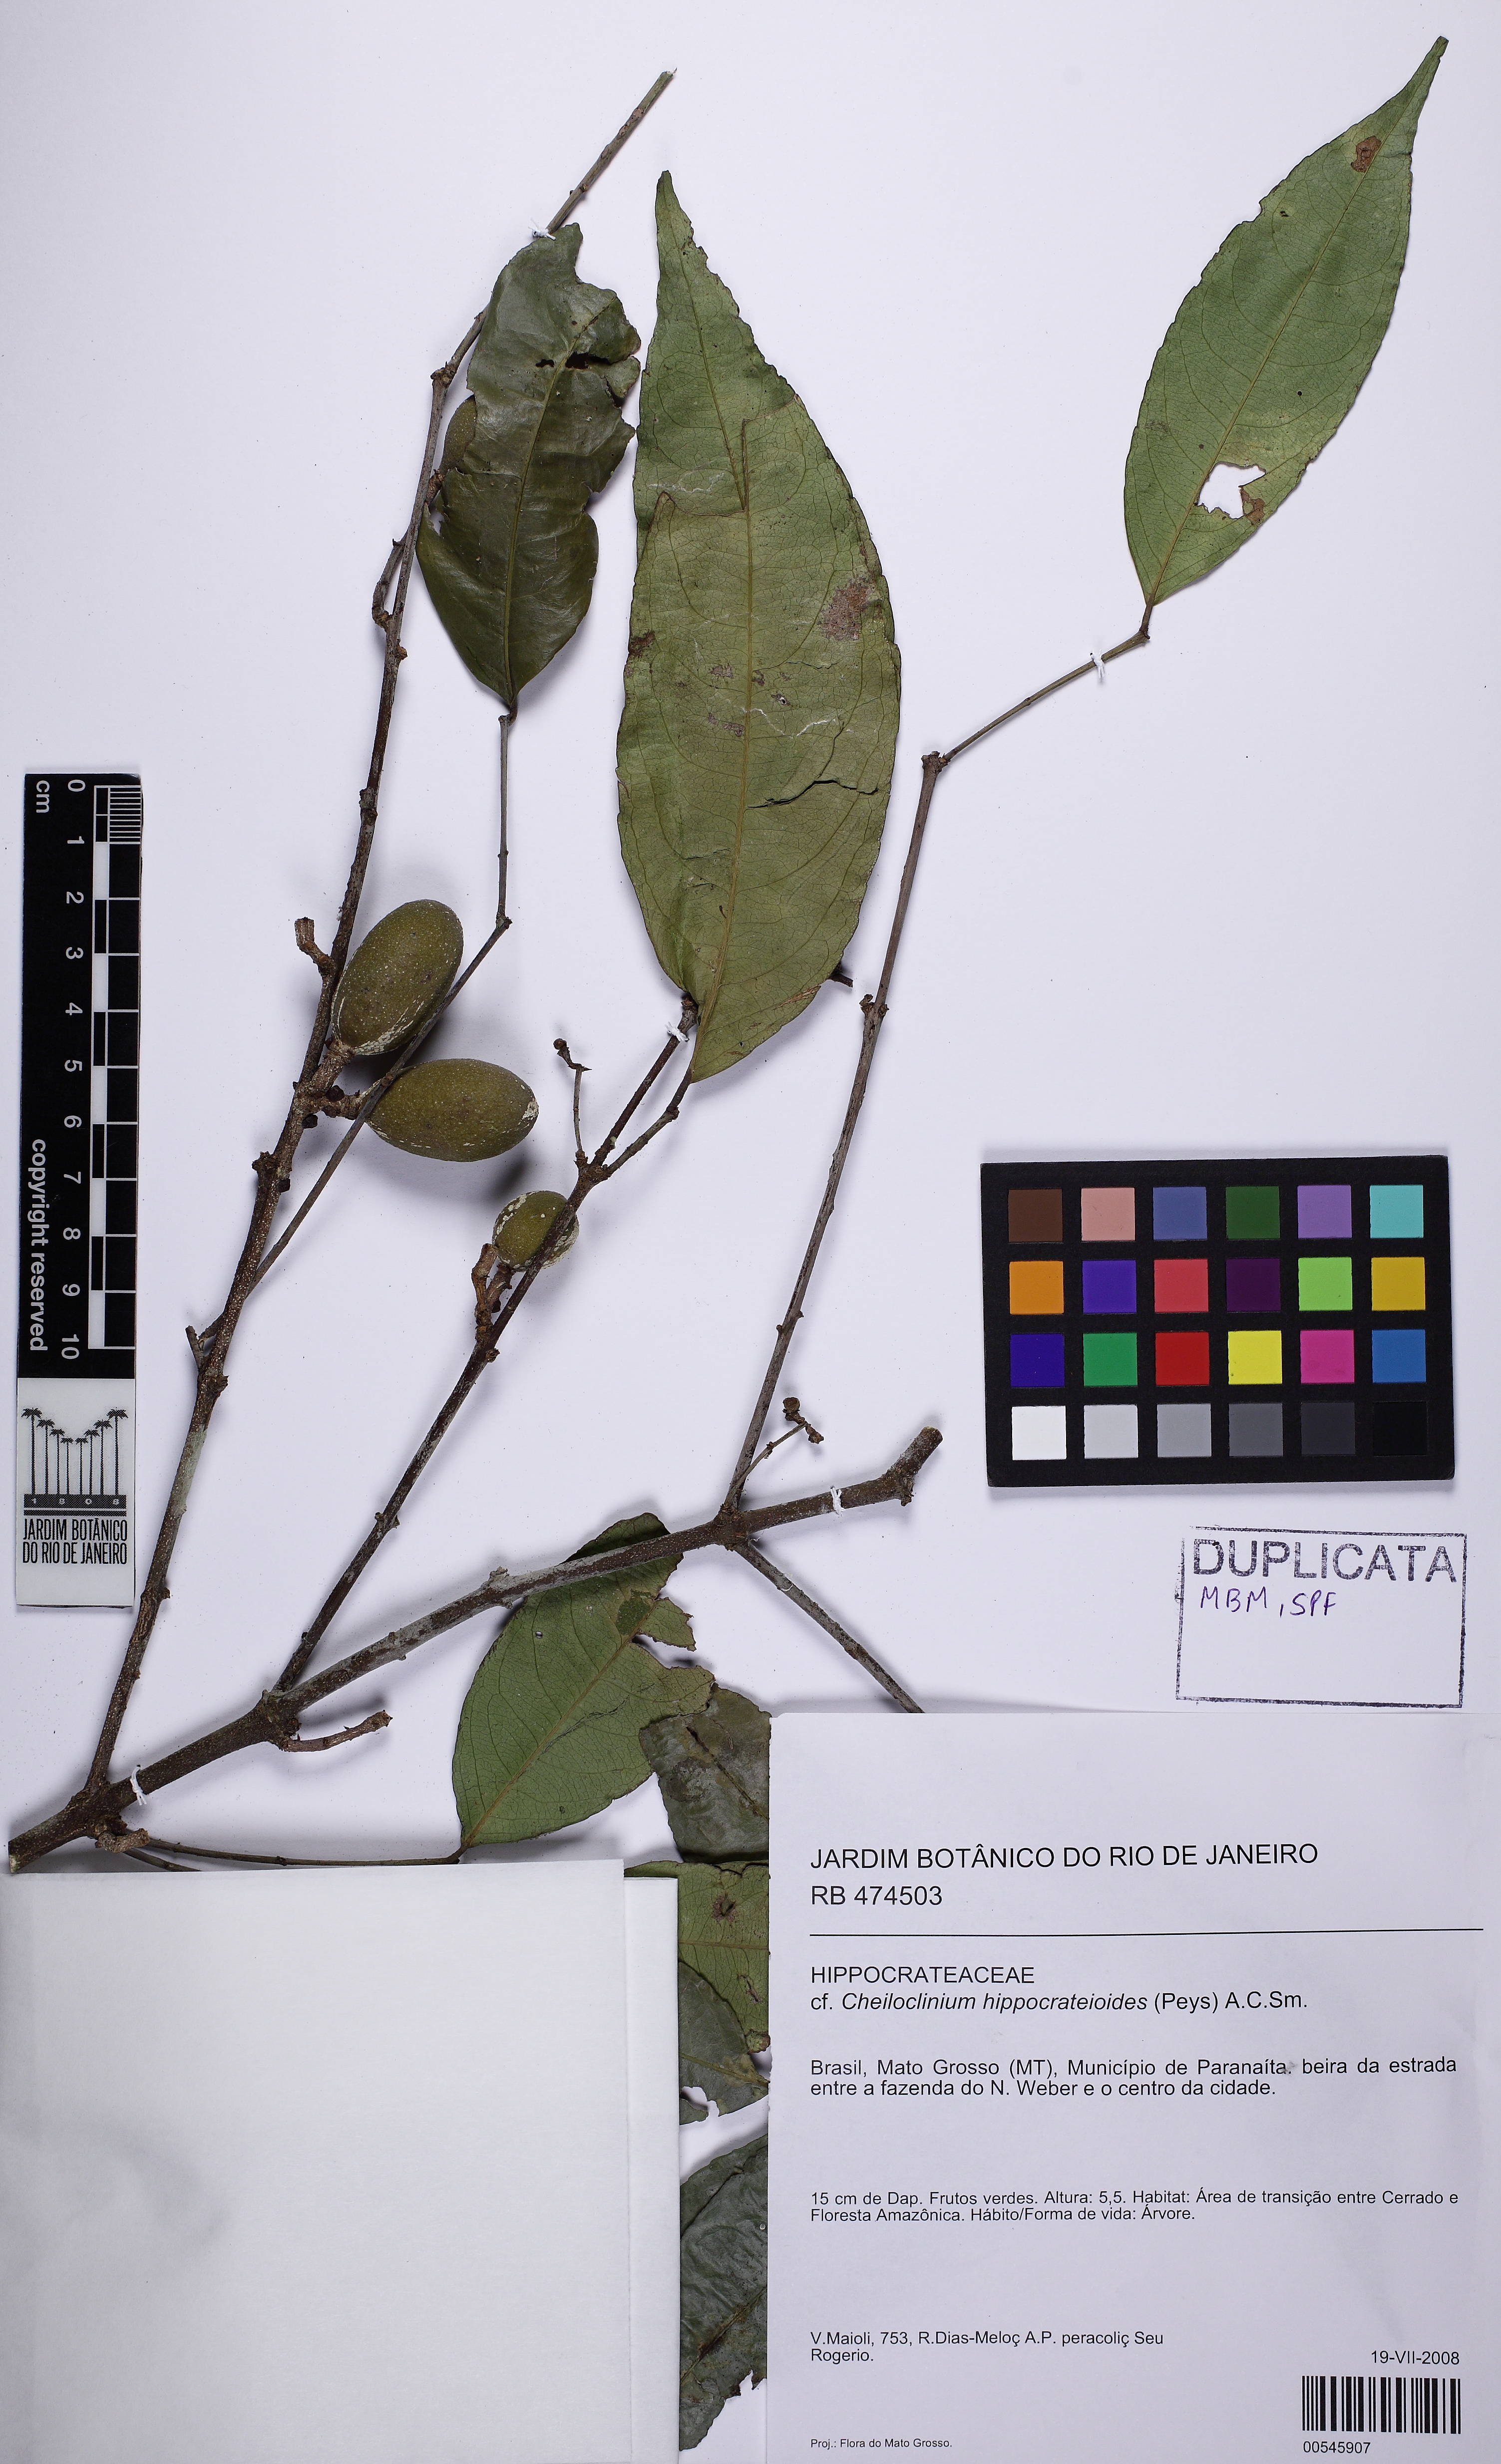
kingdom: Plantae
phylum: Tracheophyta
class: Magnoliopsida
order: Celastrales
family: Celastraceae
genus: Cheiloclinium
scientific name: Cheiloclinium hippocrateoides
